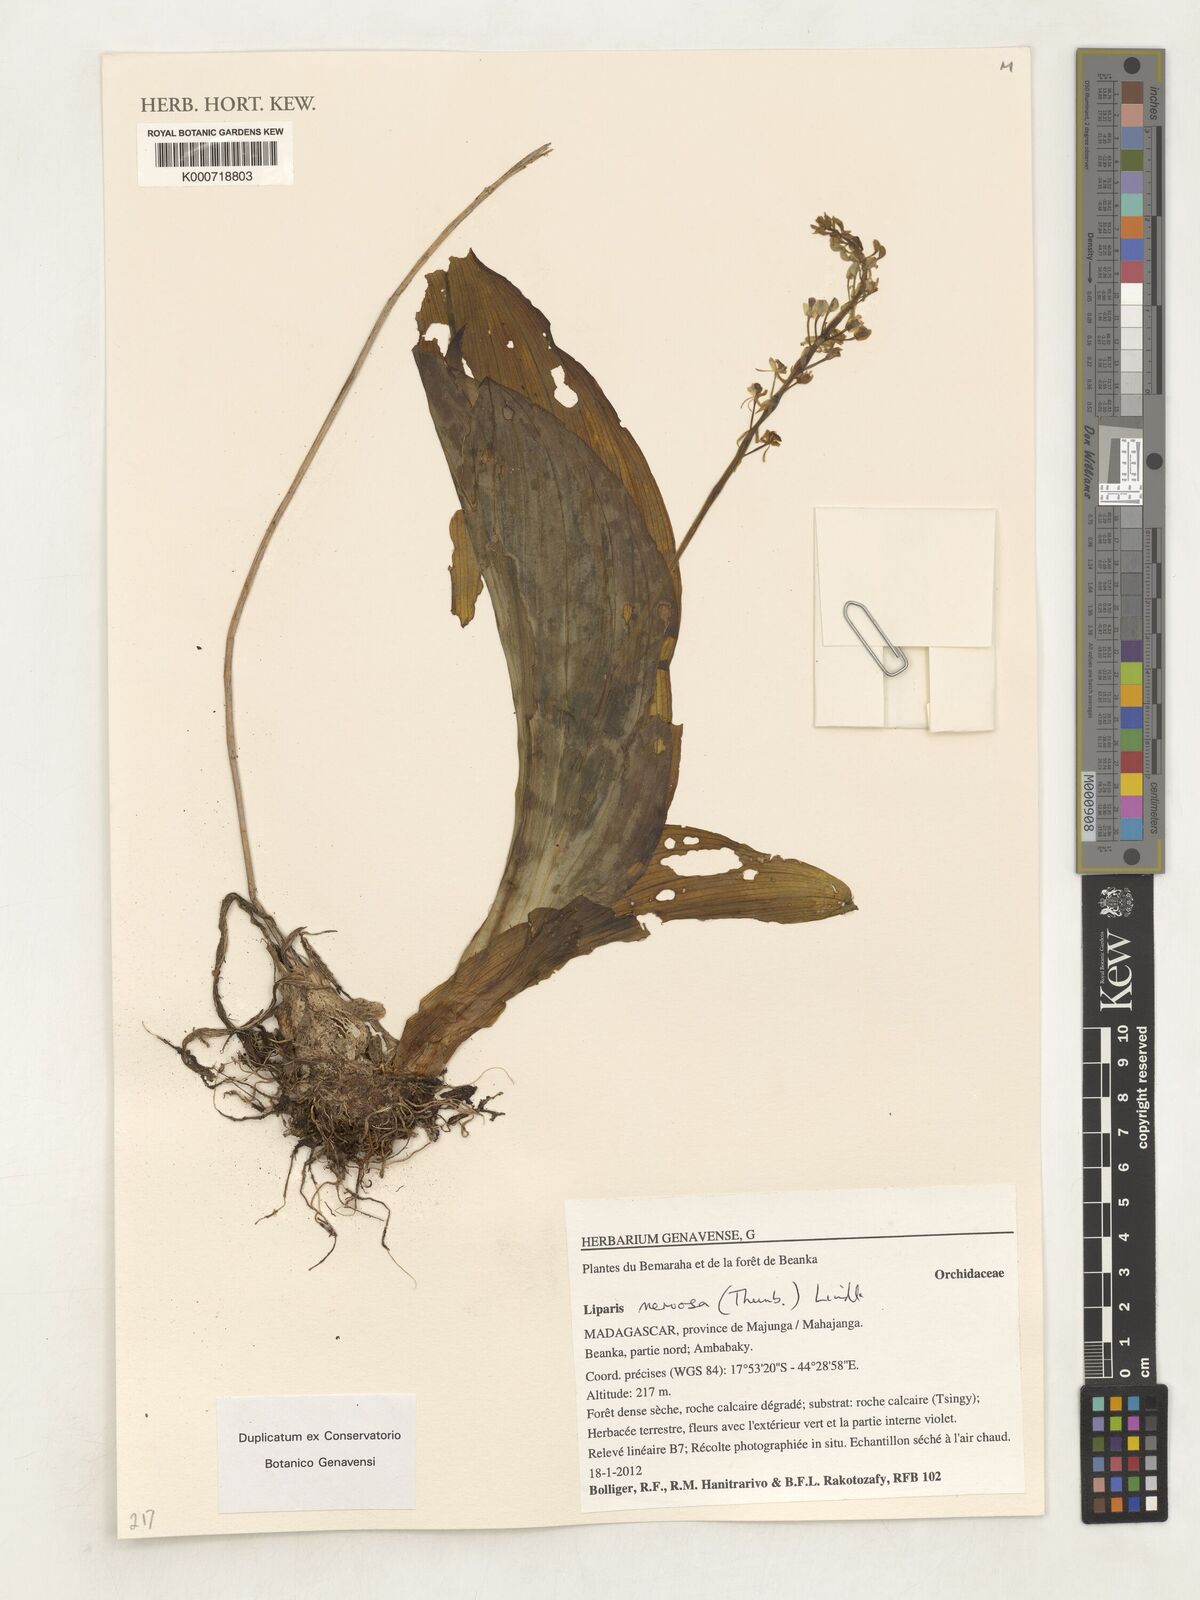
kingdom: Plantae
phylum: Tracheophyta
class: Liliopsida
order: Asparagales
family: Orchidaceae
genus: Liparis
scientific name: Liparis nervosa
